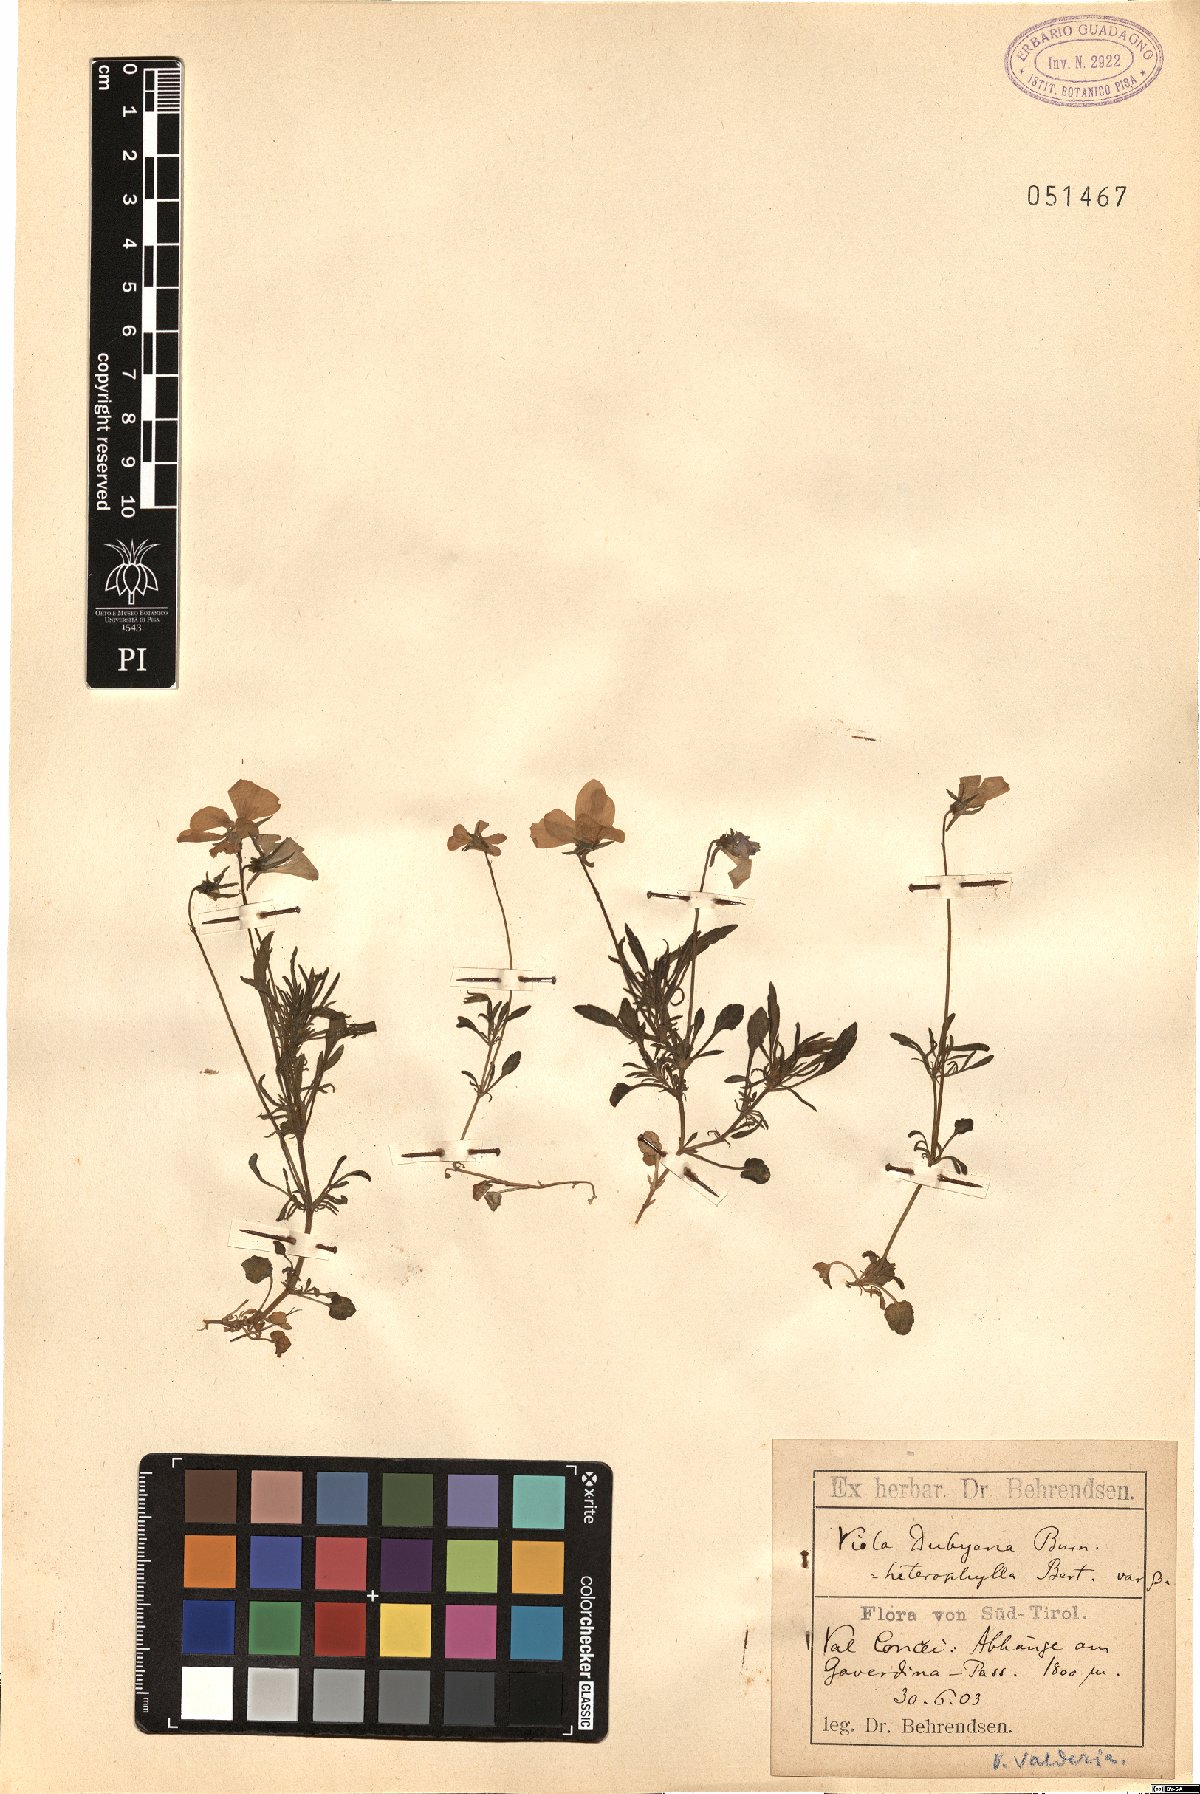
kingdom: Plantae
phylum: Tracheophyta
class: Magnoliopsida
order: Malpighiales
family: Violaceae
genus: Viola
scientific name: Viola valderia
